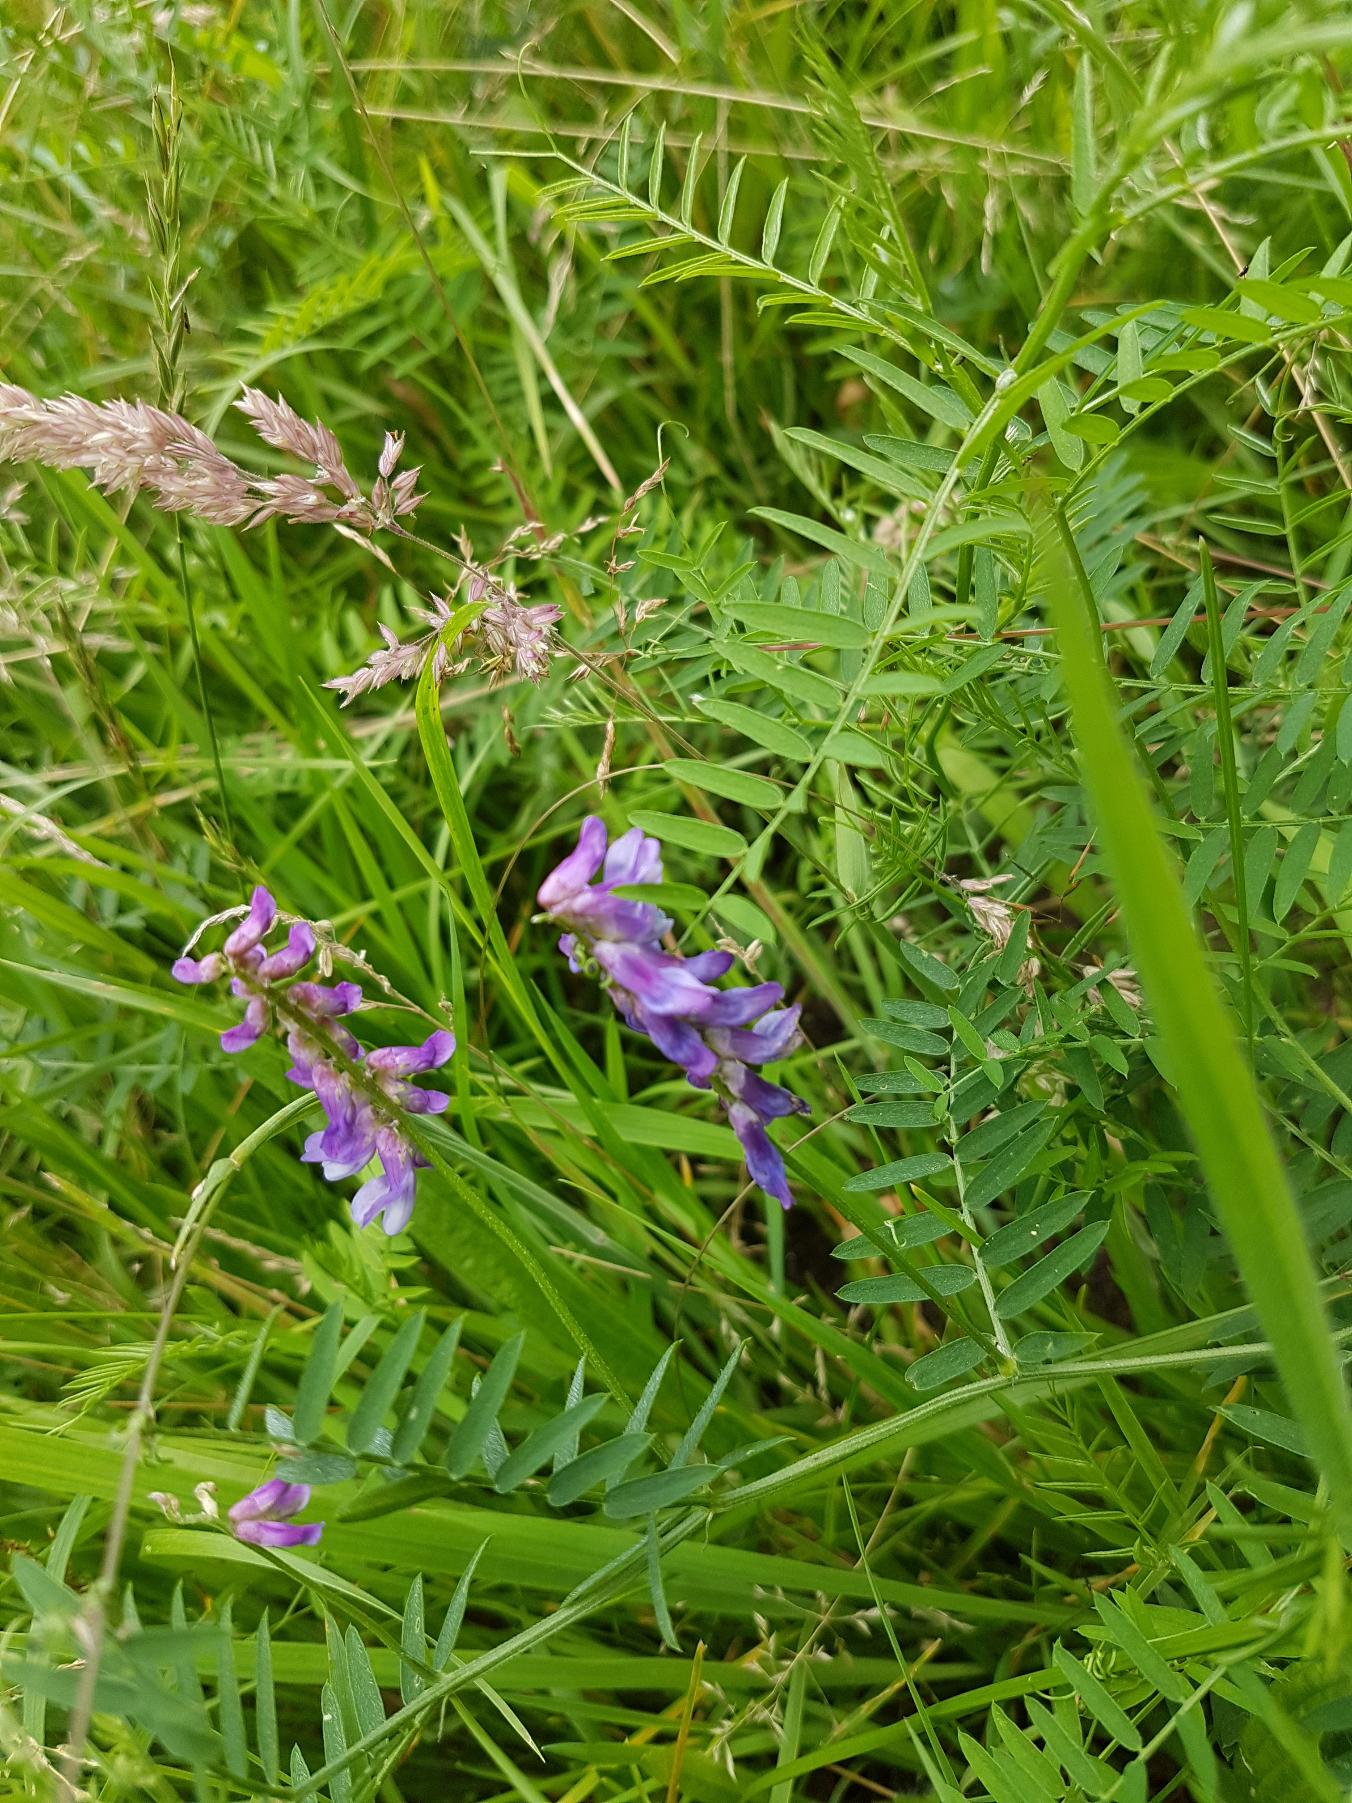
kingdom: Plantae
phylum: Tracheophyta
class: Magnoliopsida
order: Fabales
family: Fabaceae
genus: Vicia
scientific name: Vicia cracca
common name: Muse-vikke
